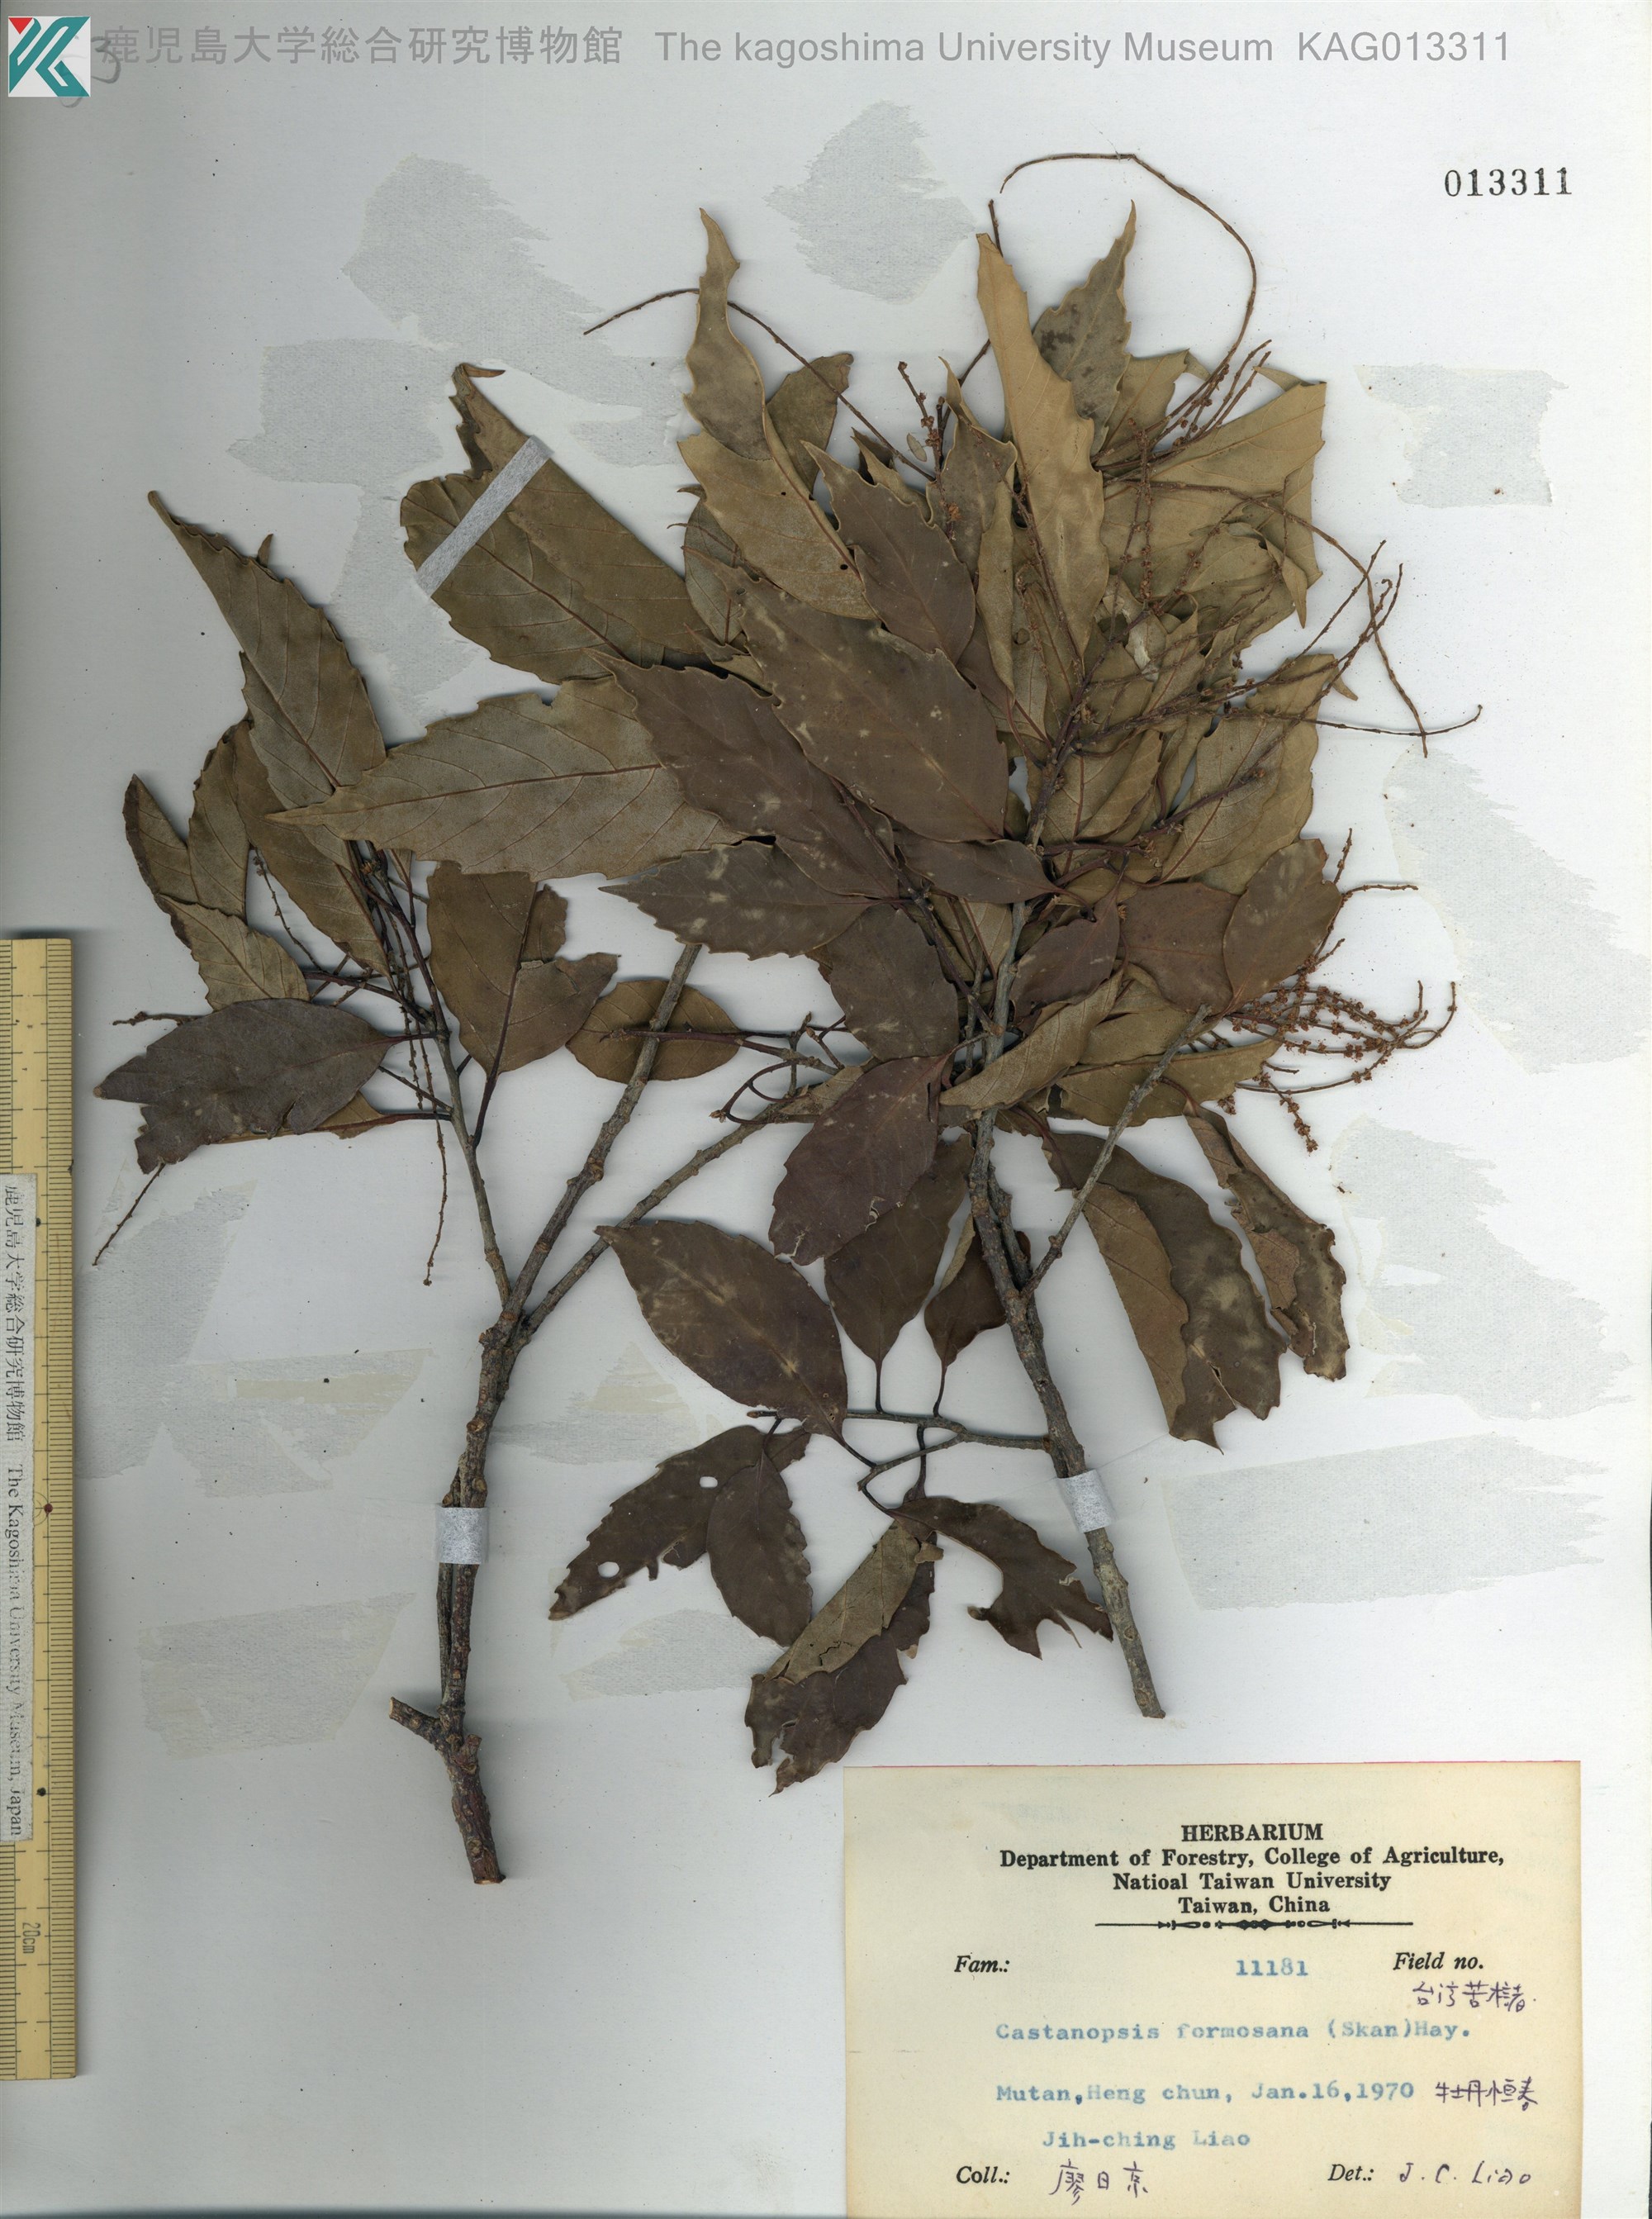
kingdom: Plantae
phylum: Tracheophyta
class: Magnoliopsida
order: Fagales
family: Fagaceae
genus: Castanopsis
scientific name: Castanopsis formosana
